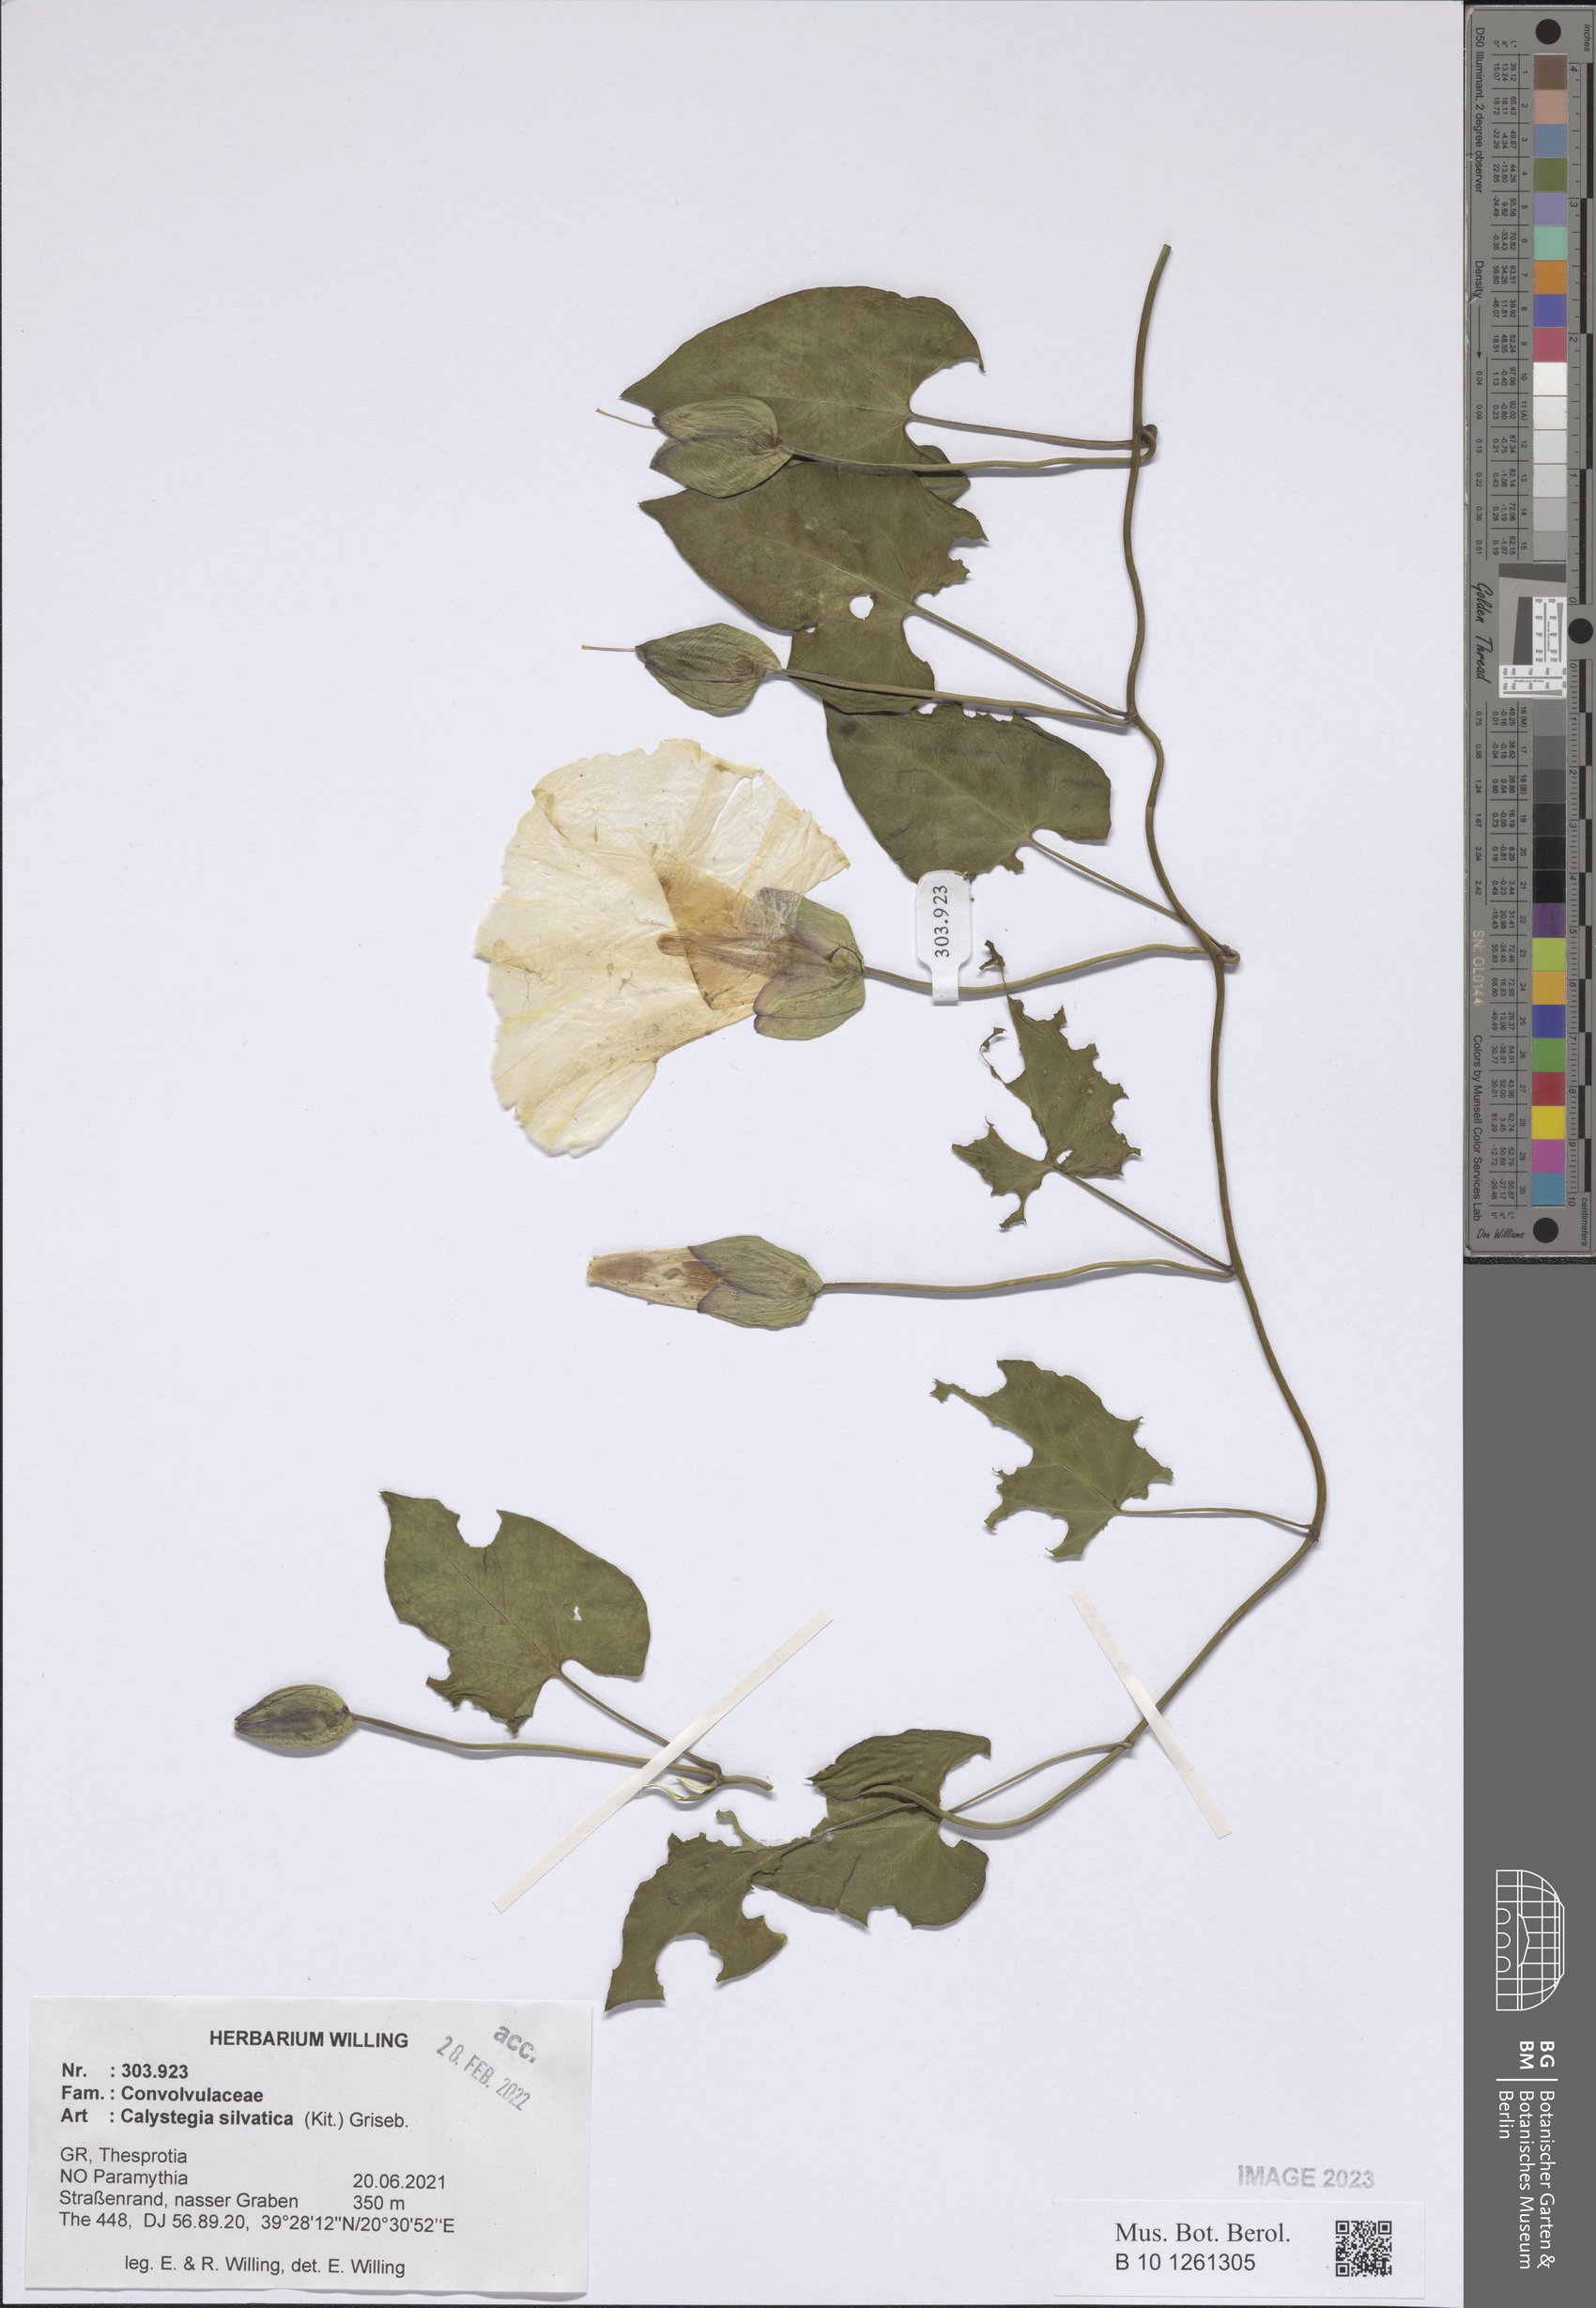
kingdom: Plantae
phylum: Tracheophyta
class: Magnoliopsida
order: Solanales
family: Convolvulaceae
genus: Calystegia
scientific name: Calystegia silvatica
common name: Large bindweed
